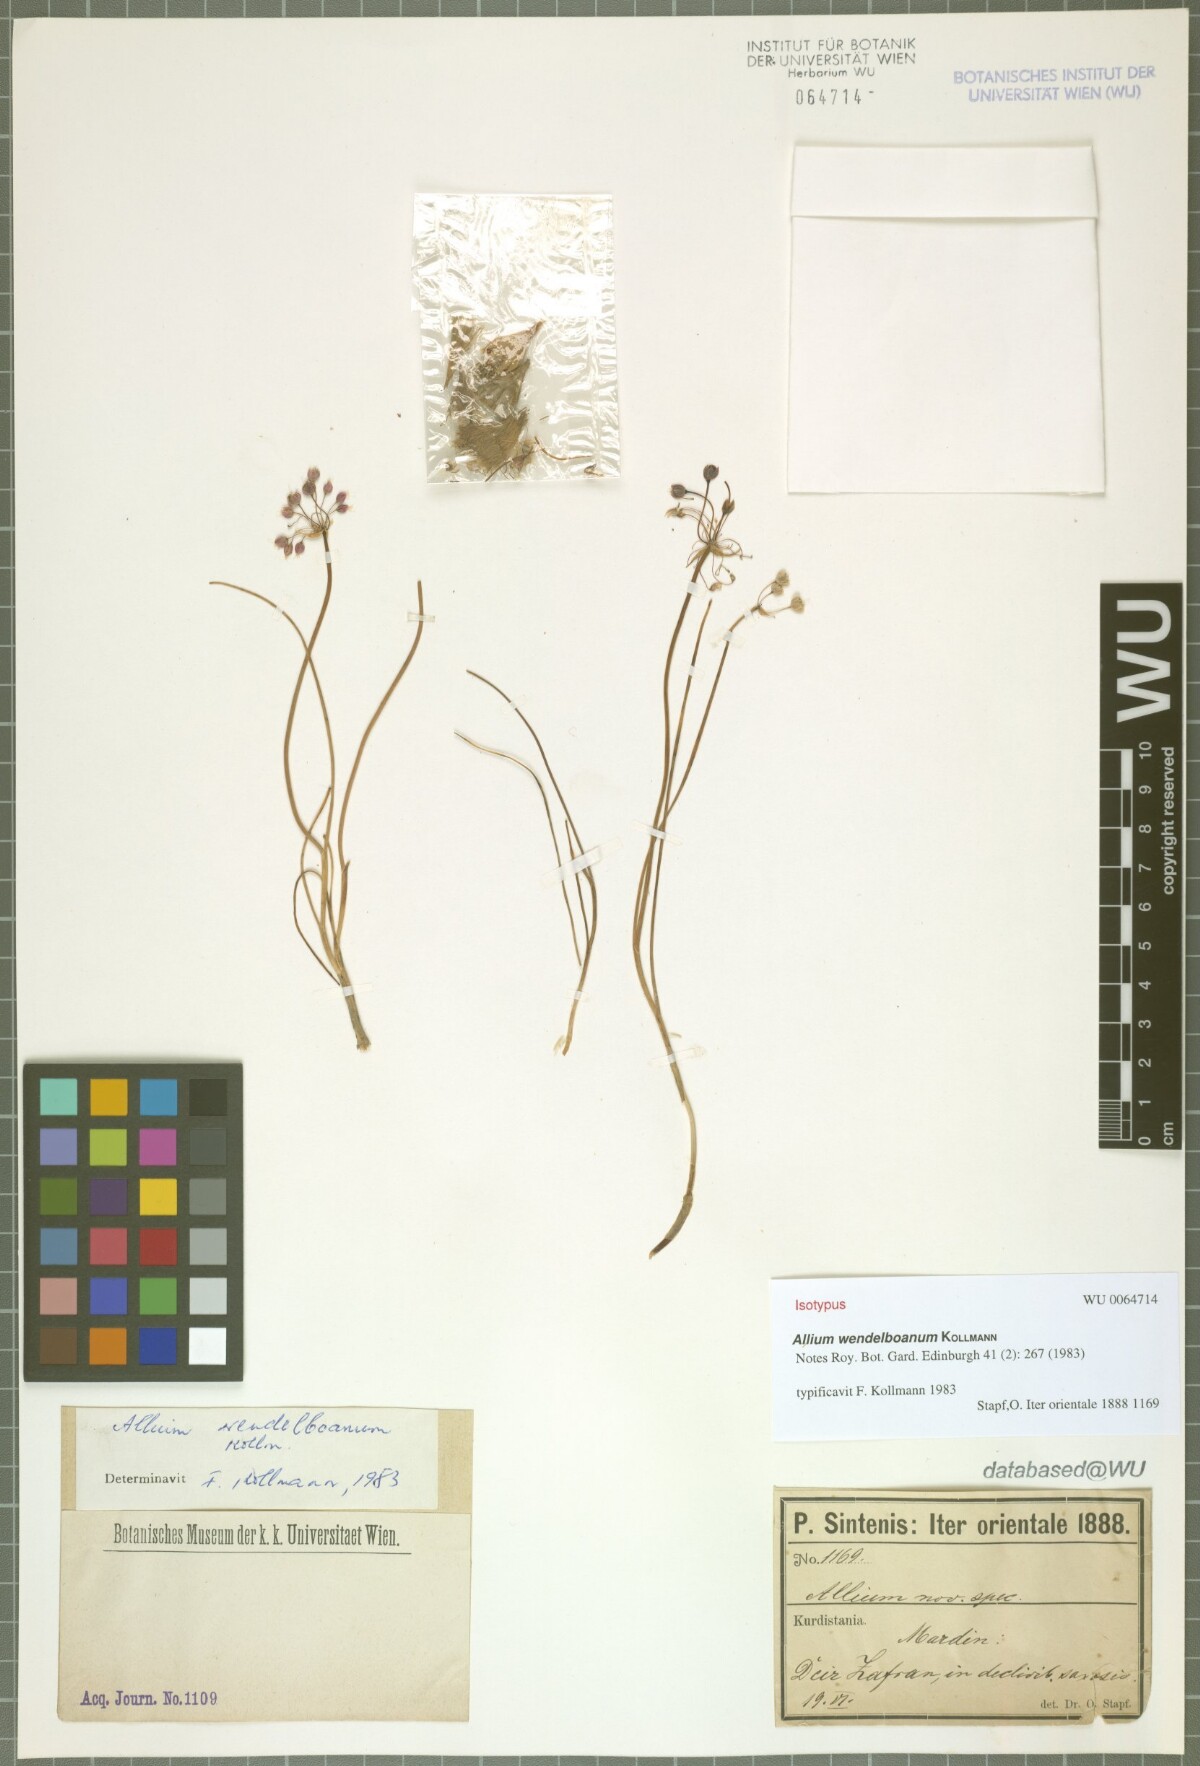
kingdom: Plantae
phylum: Tracheophyta
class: Liliopsida
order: Asparagales
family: Amaryllidaceae
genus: Allium
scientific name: Allium wendelboanum
